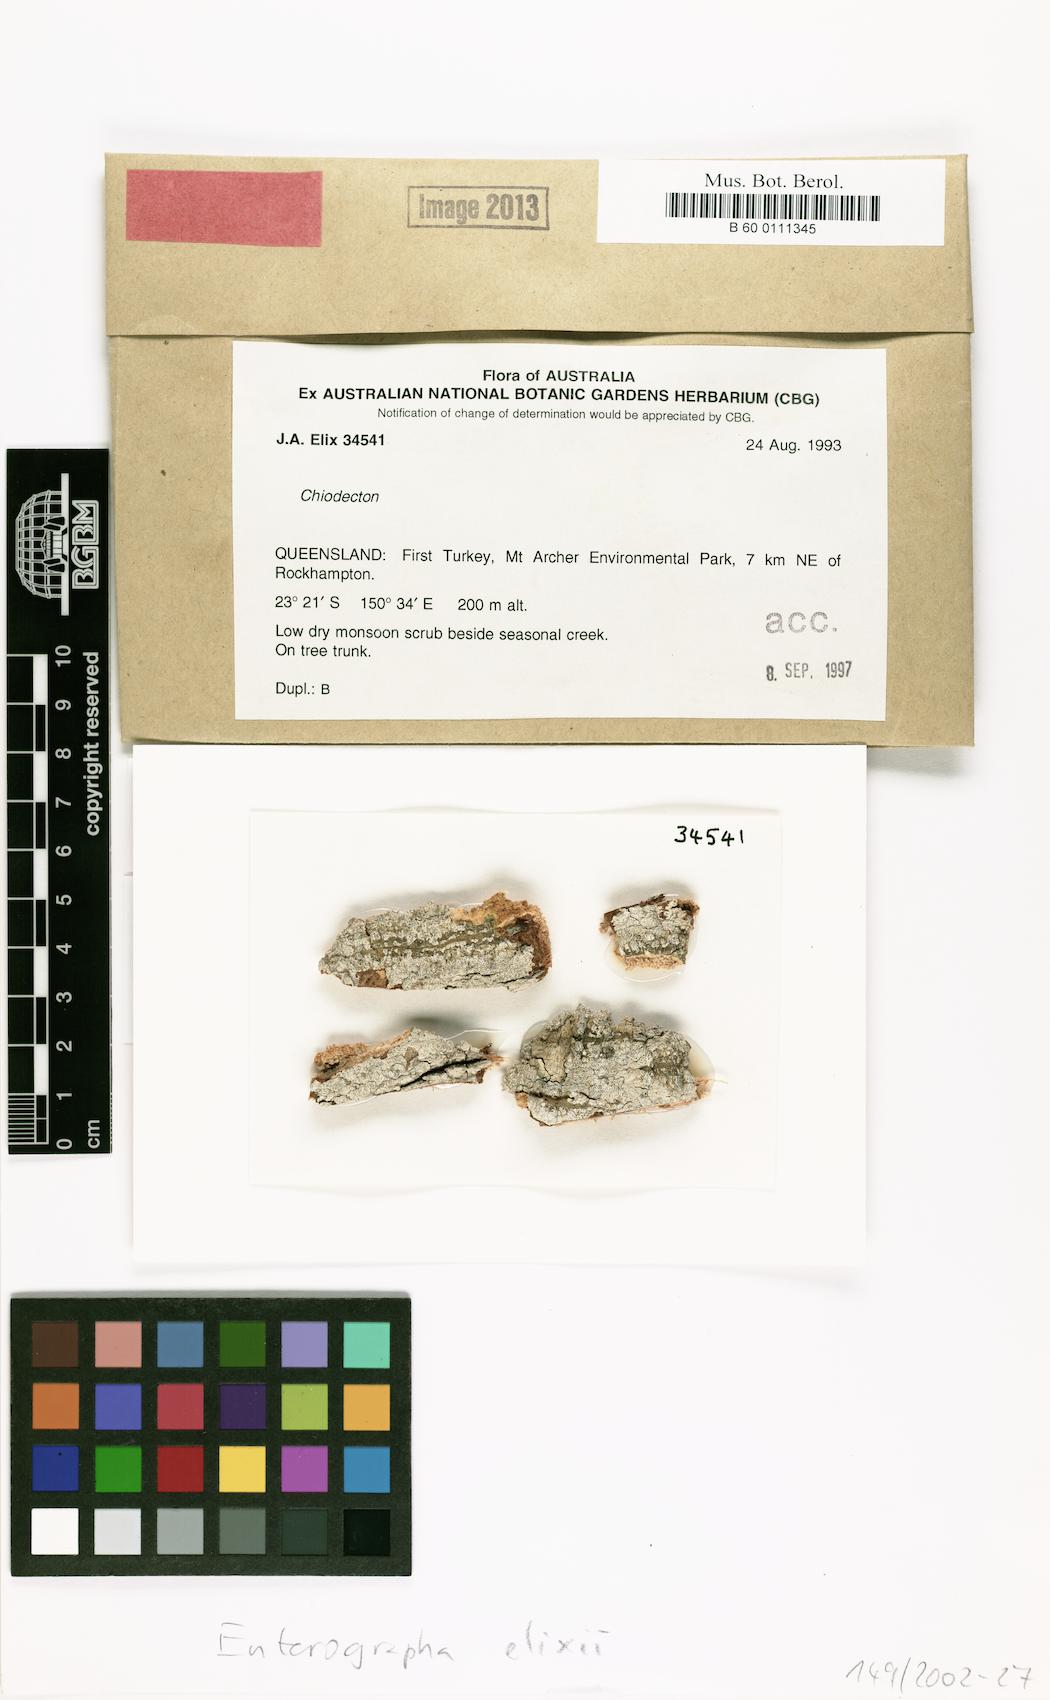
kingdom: Fungi
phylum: Ascomycota
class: Arthoniomycetes
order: Arthoniales
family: Roccellaceae
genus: Enterographa
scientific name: Enterographa elixii
